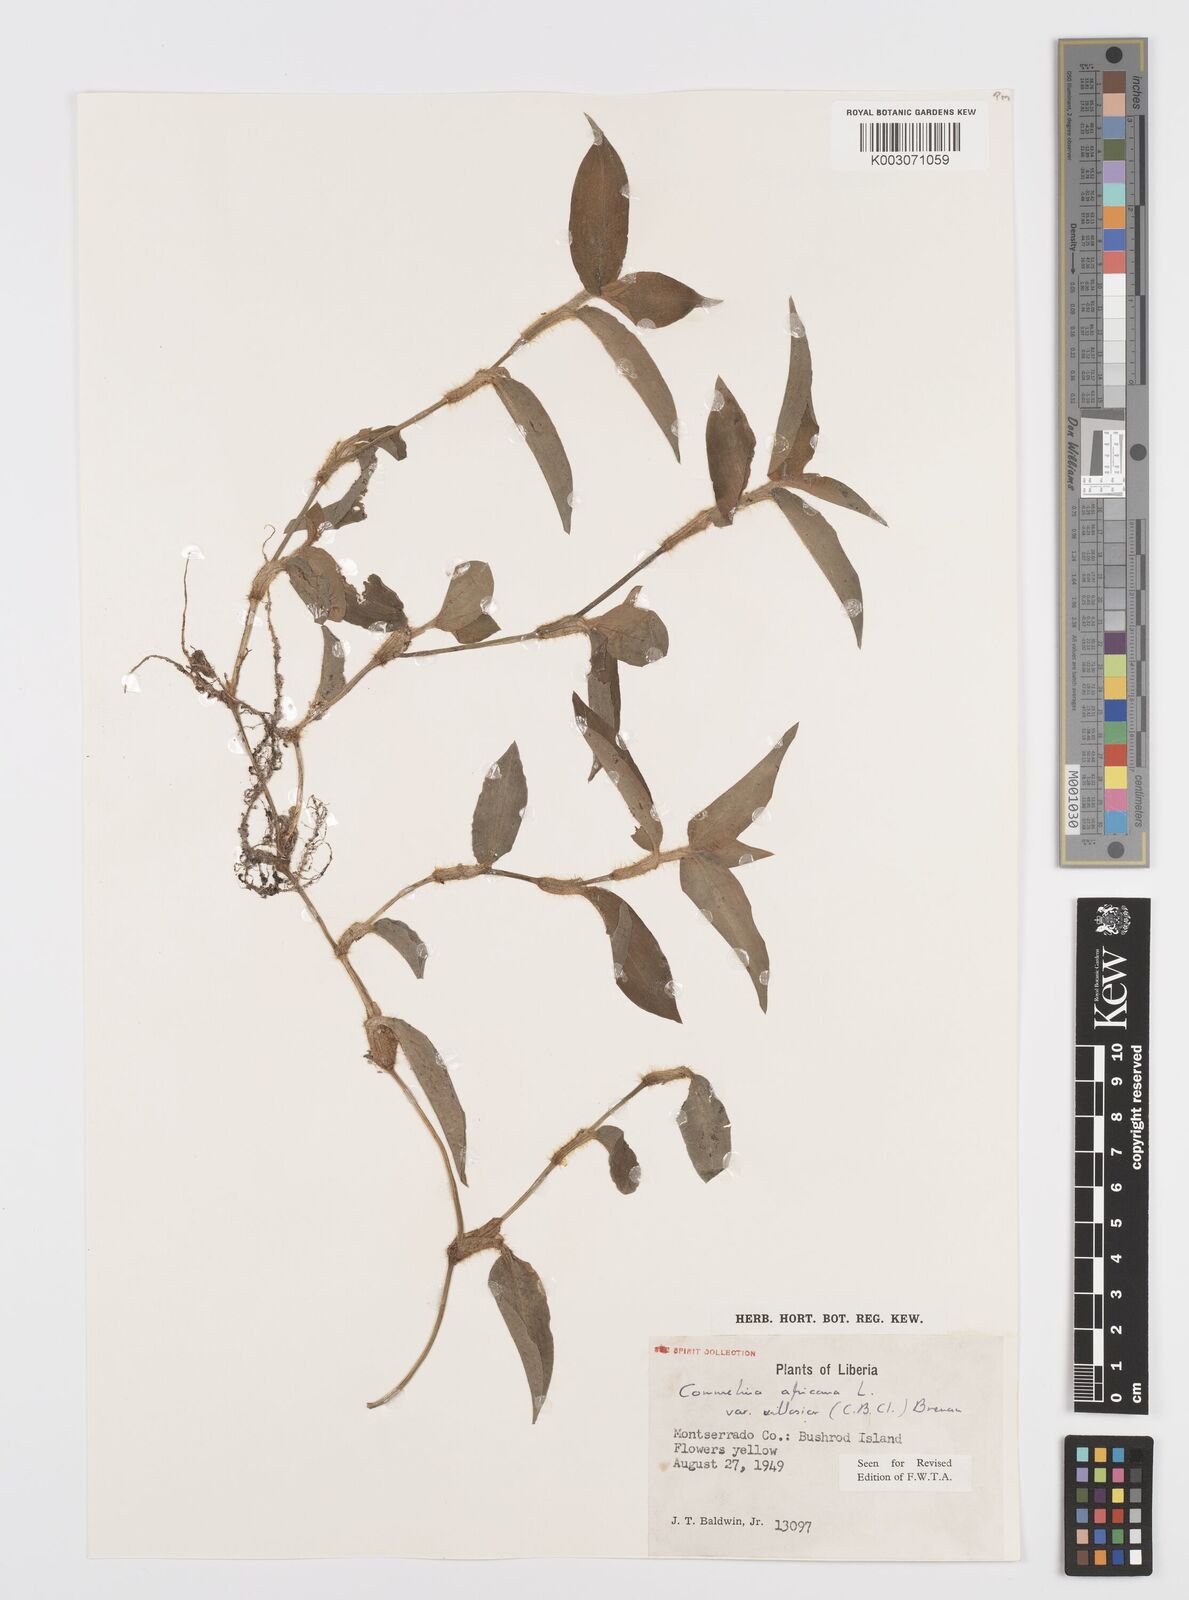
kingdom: Plantae
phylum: Tracheophyta
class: Liliopsida
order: Commelinales
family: Commelinaceae
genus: Commelina
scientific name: Commelina africana
